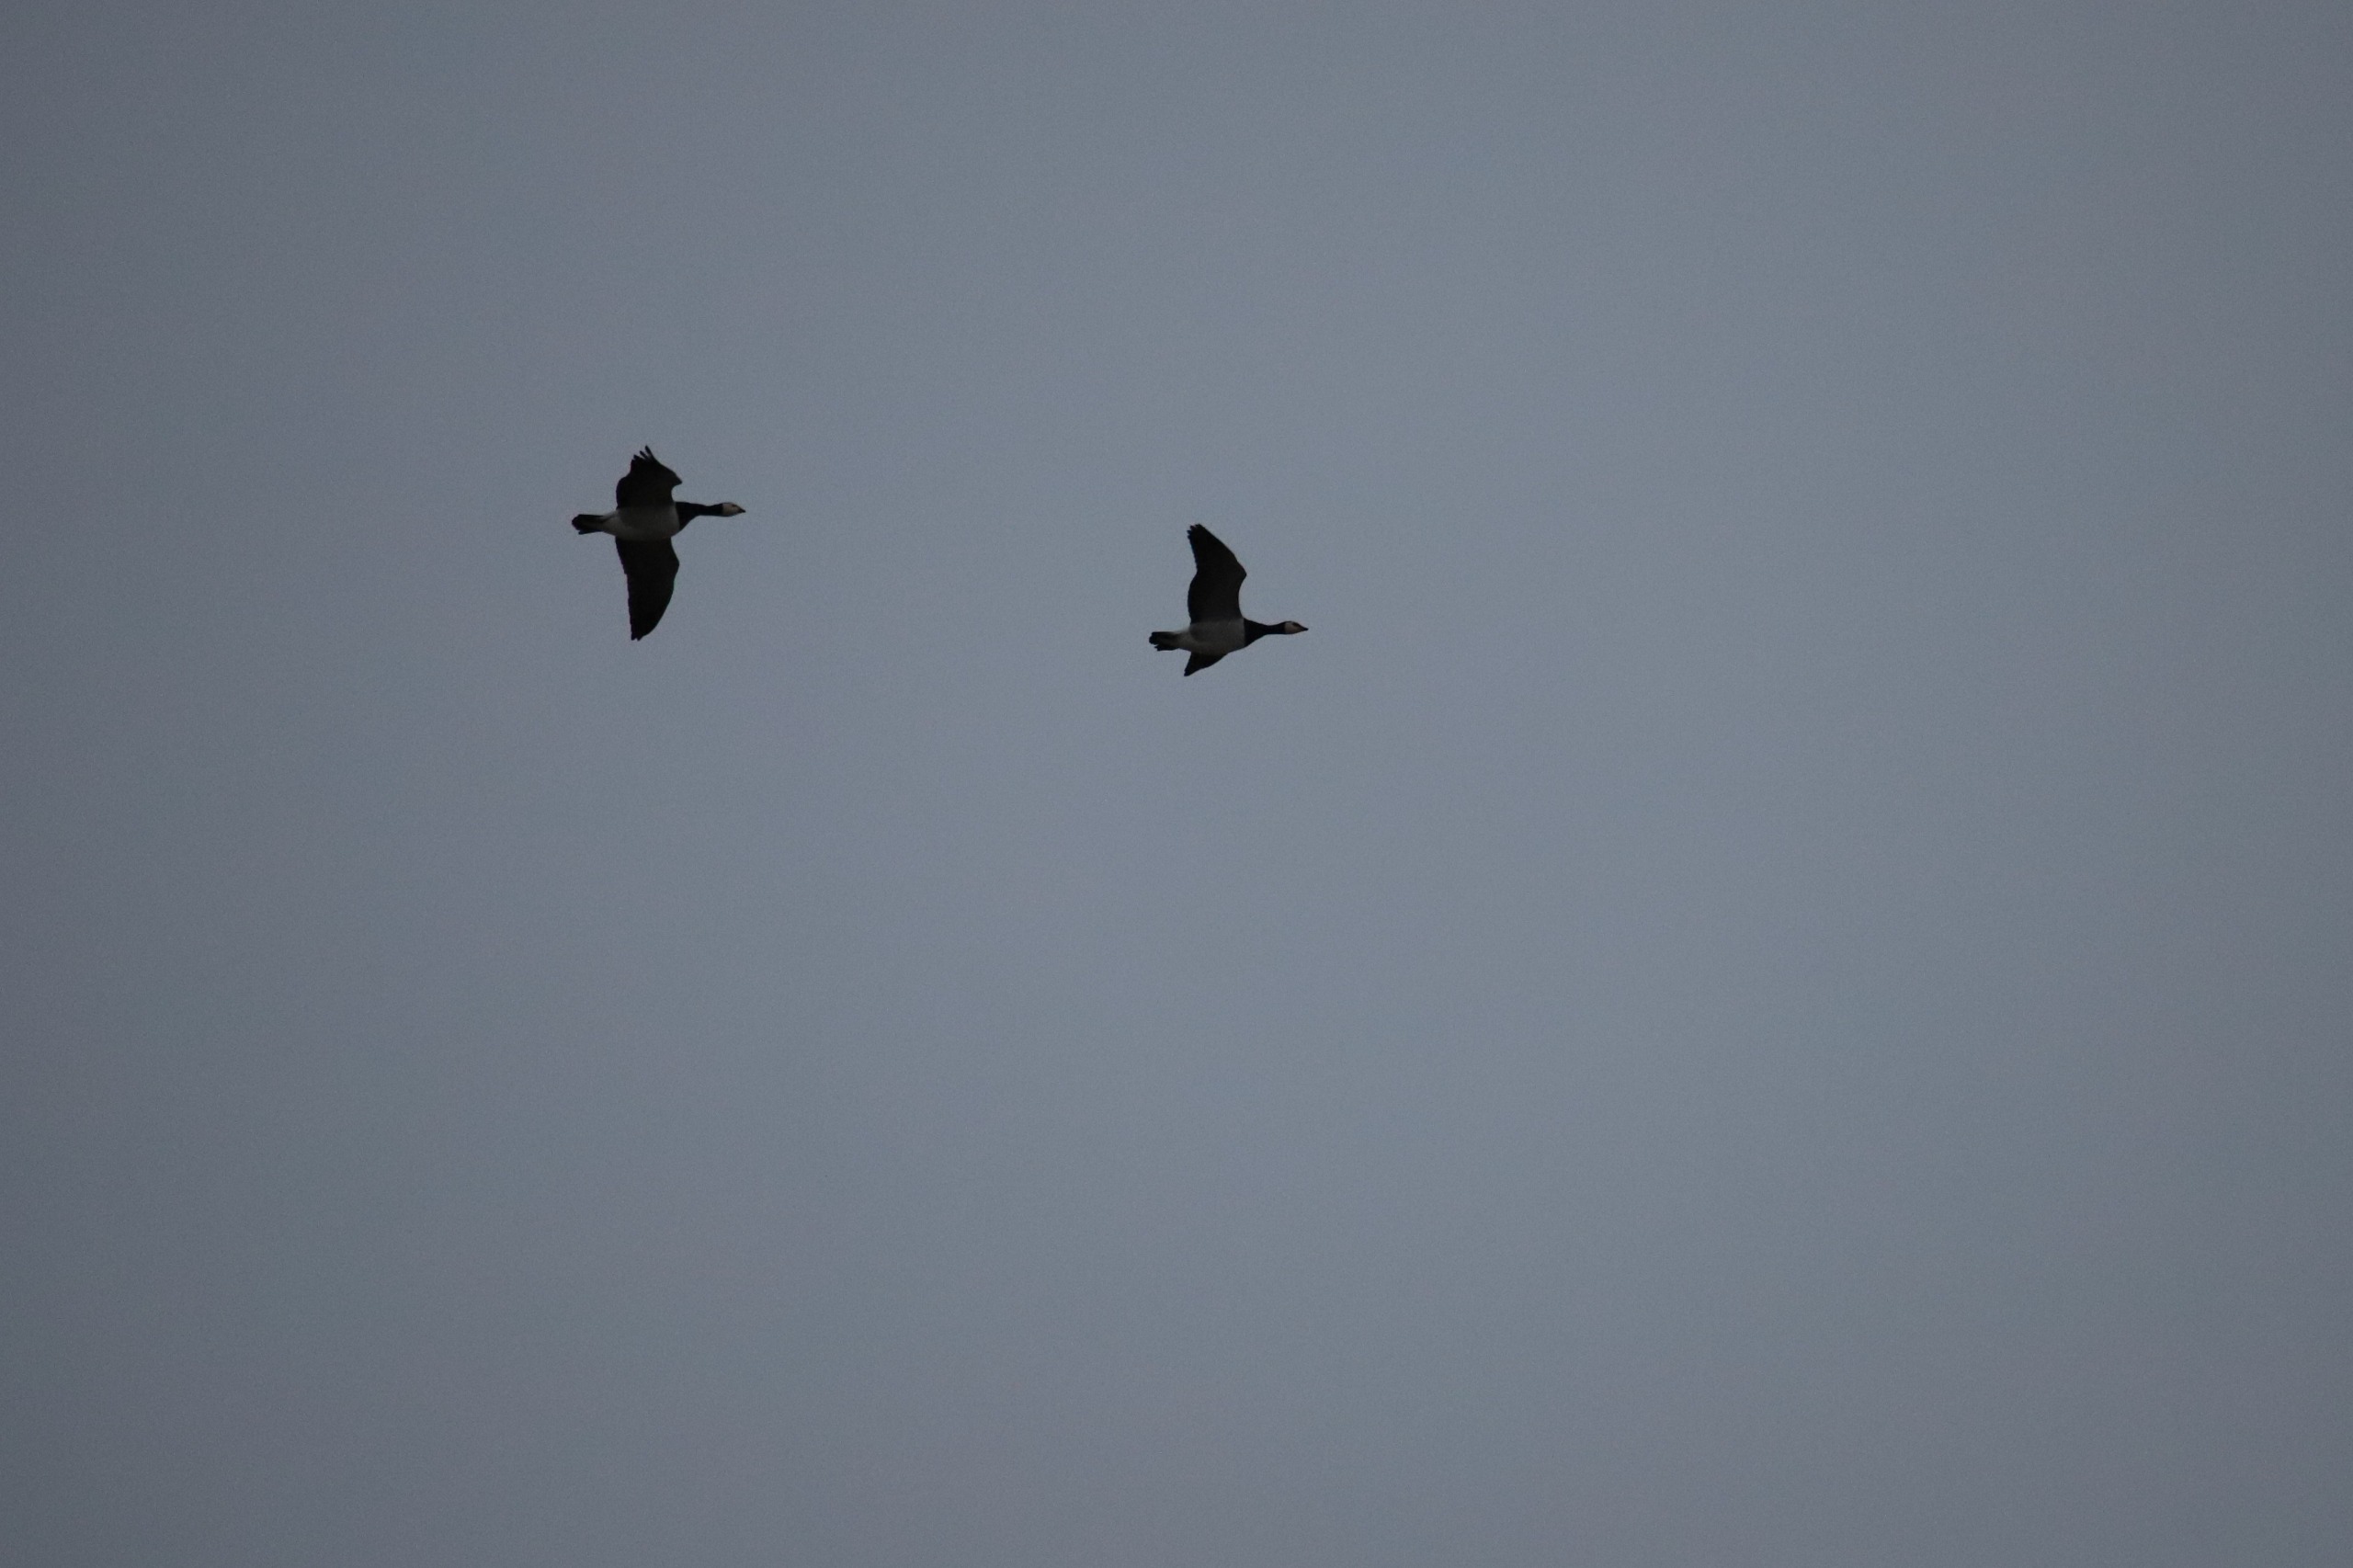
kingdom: Animalia
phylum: Chordata
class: Aves
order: Anseriformes
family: Anatidae
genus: Branta
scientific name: Branta leucopsis
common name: Bramgås
